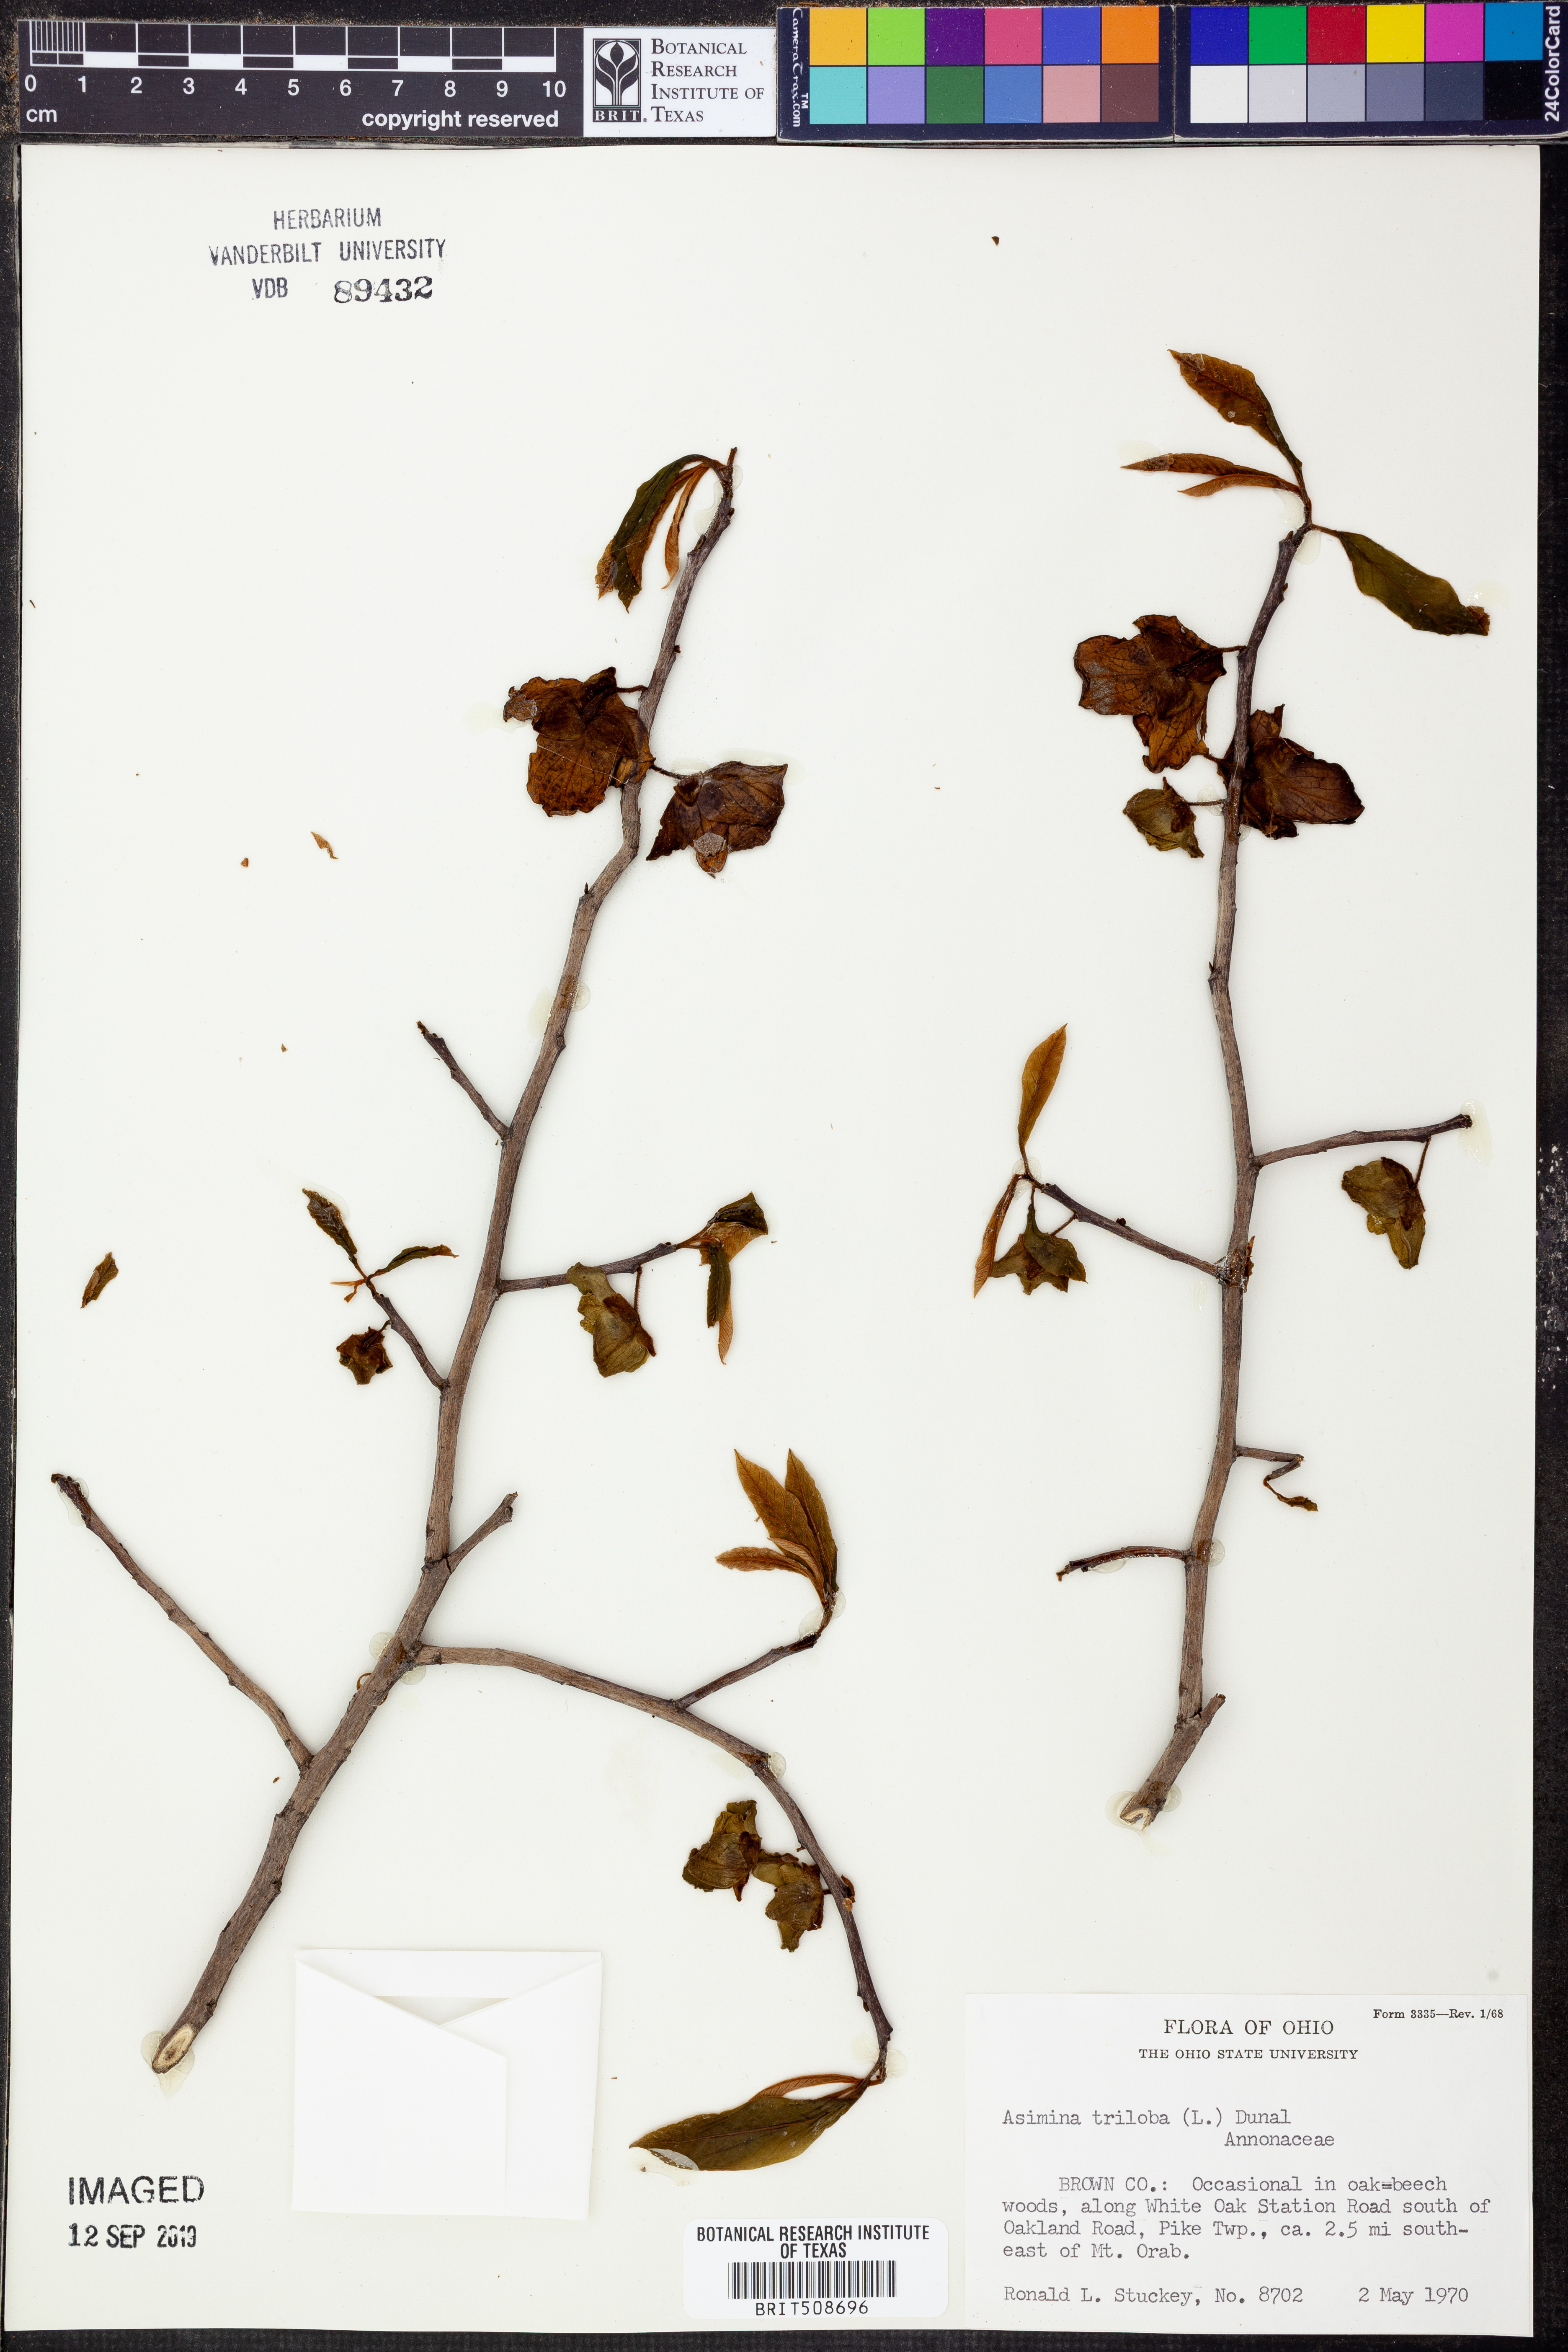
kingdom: Plantae
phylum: Tracheophyta
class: Magnoliopsida
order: Magnoliales
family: Annonaceae
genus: Asimina
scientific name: Asimina triloba
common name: Dog-banana
